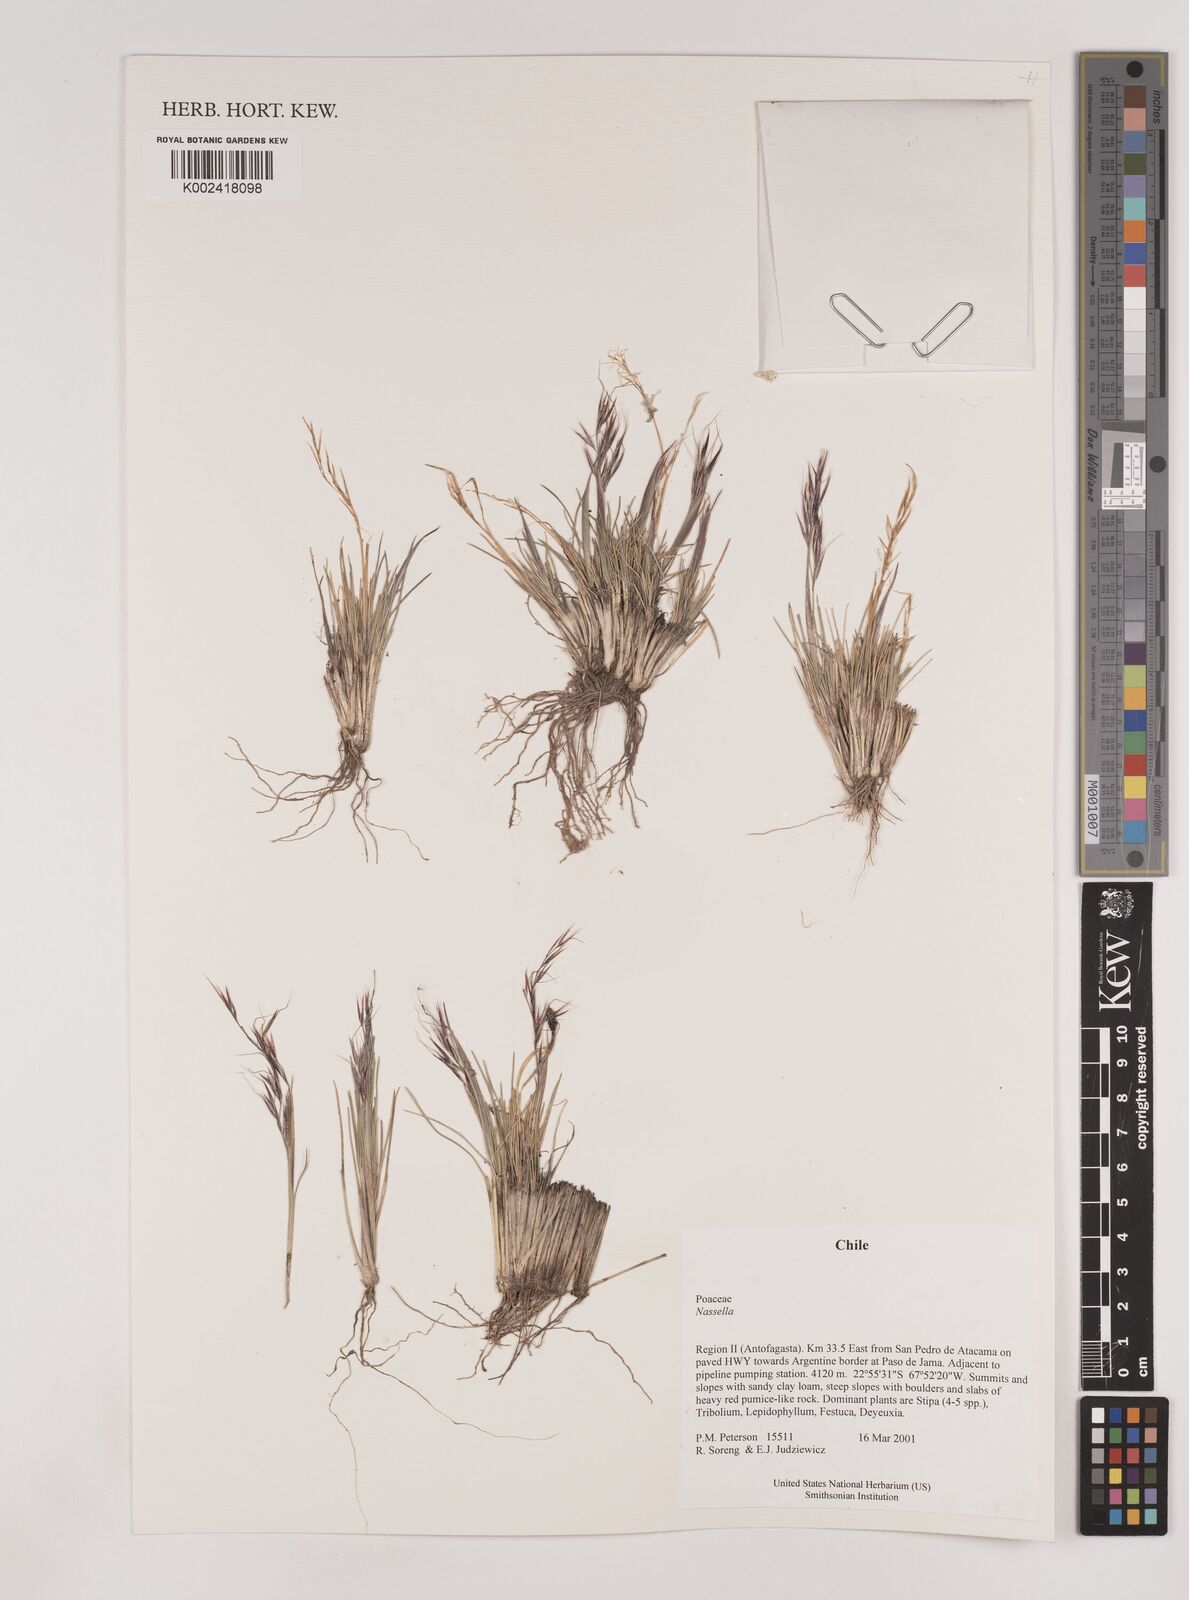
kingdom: Plantae
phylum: Tracheophyta
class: Liliopsida
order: Poales
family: Poaceae
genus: Nassella
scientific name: Nassella
